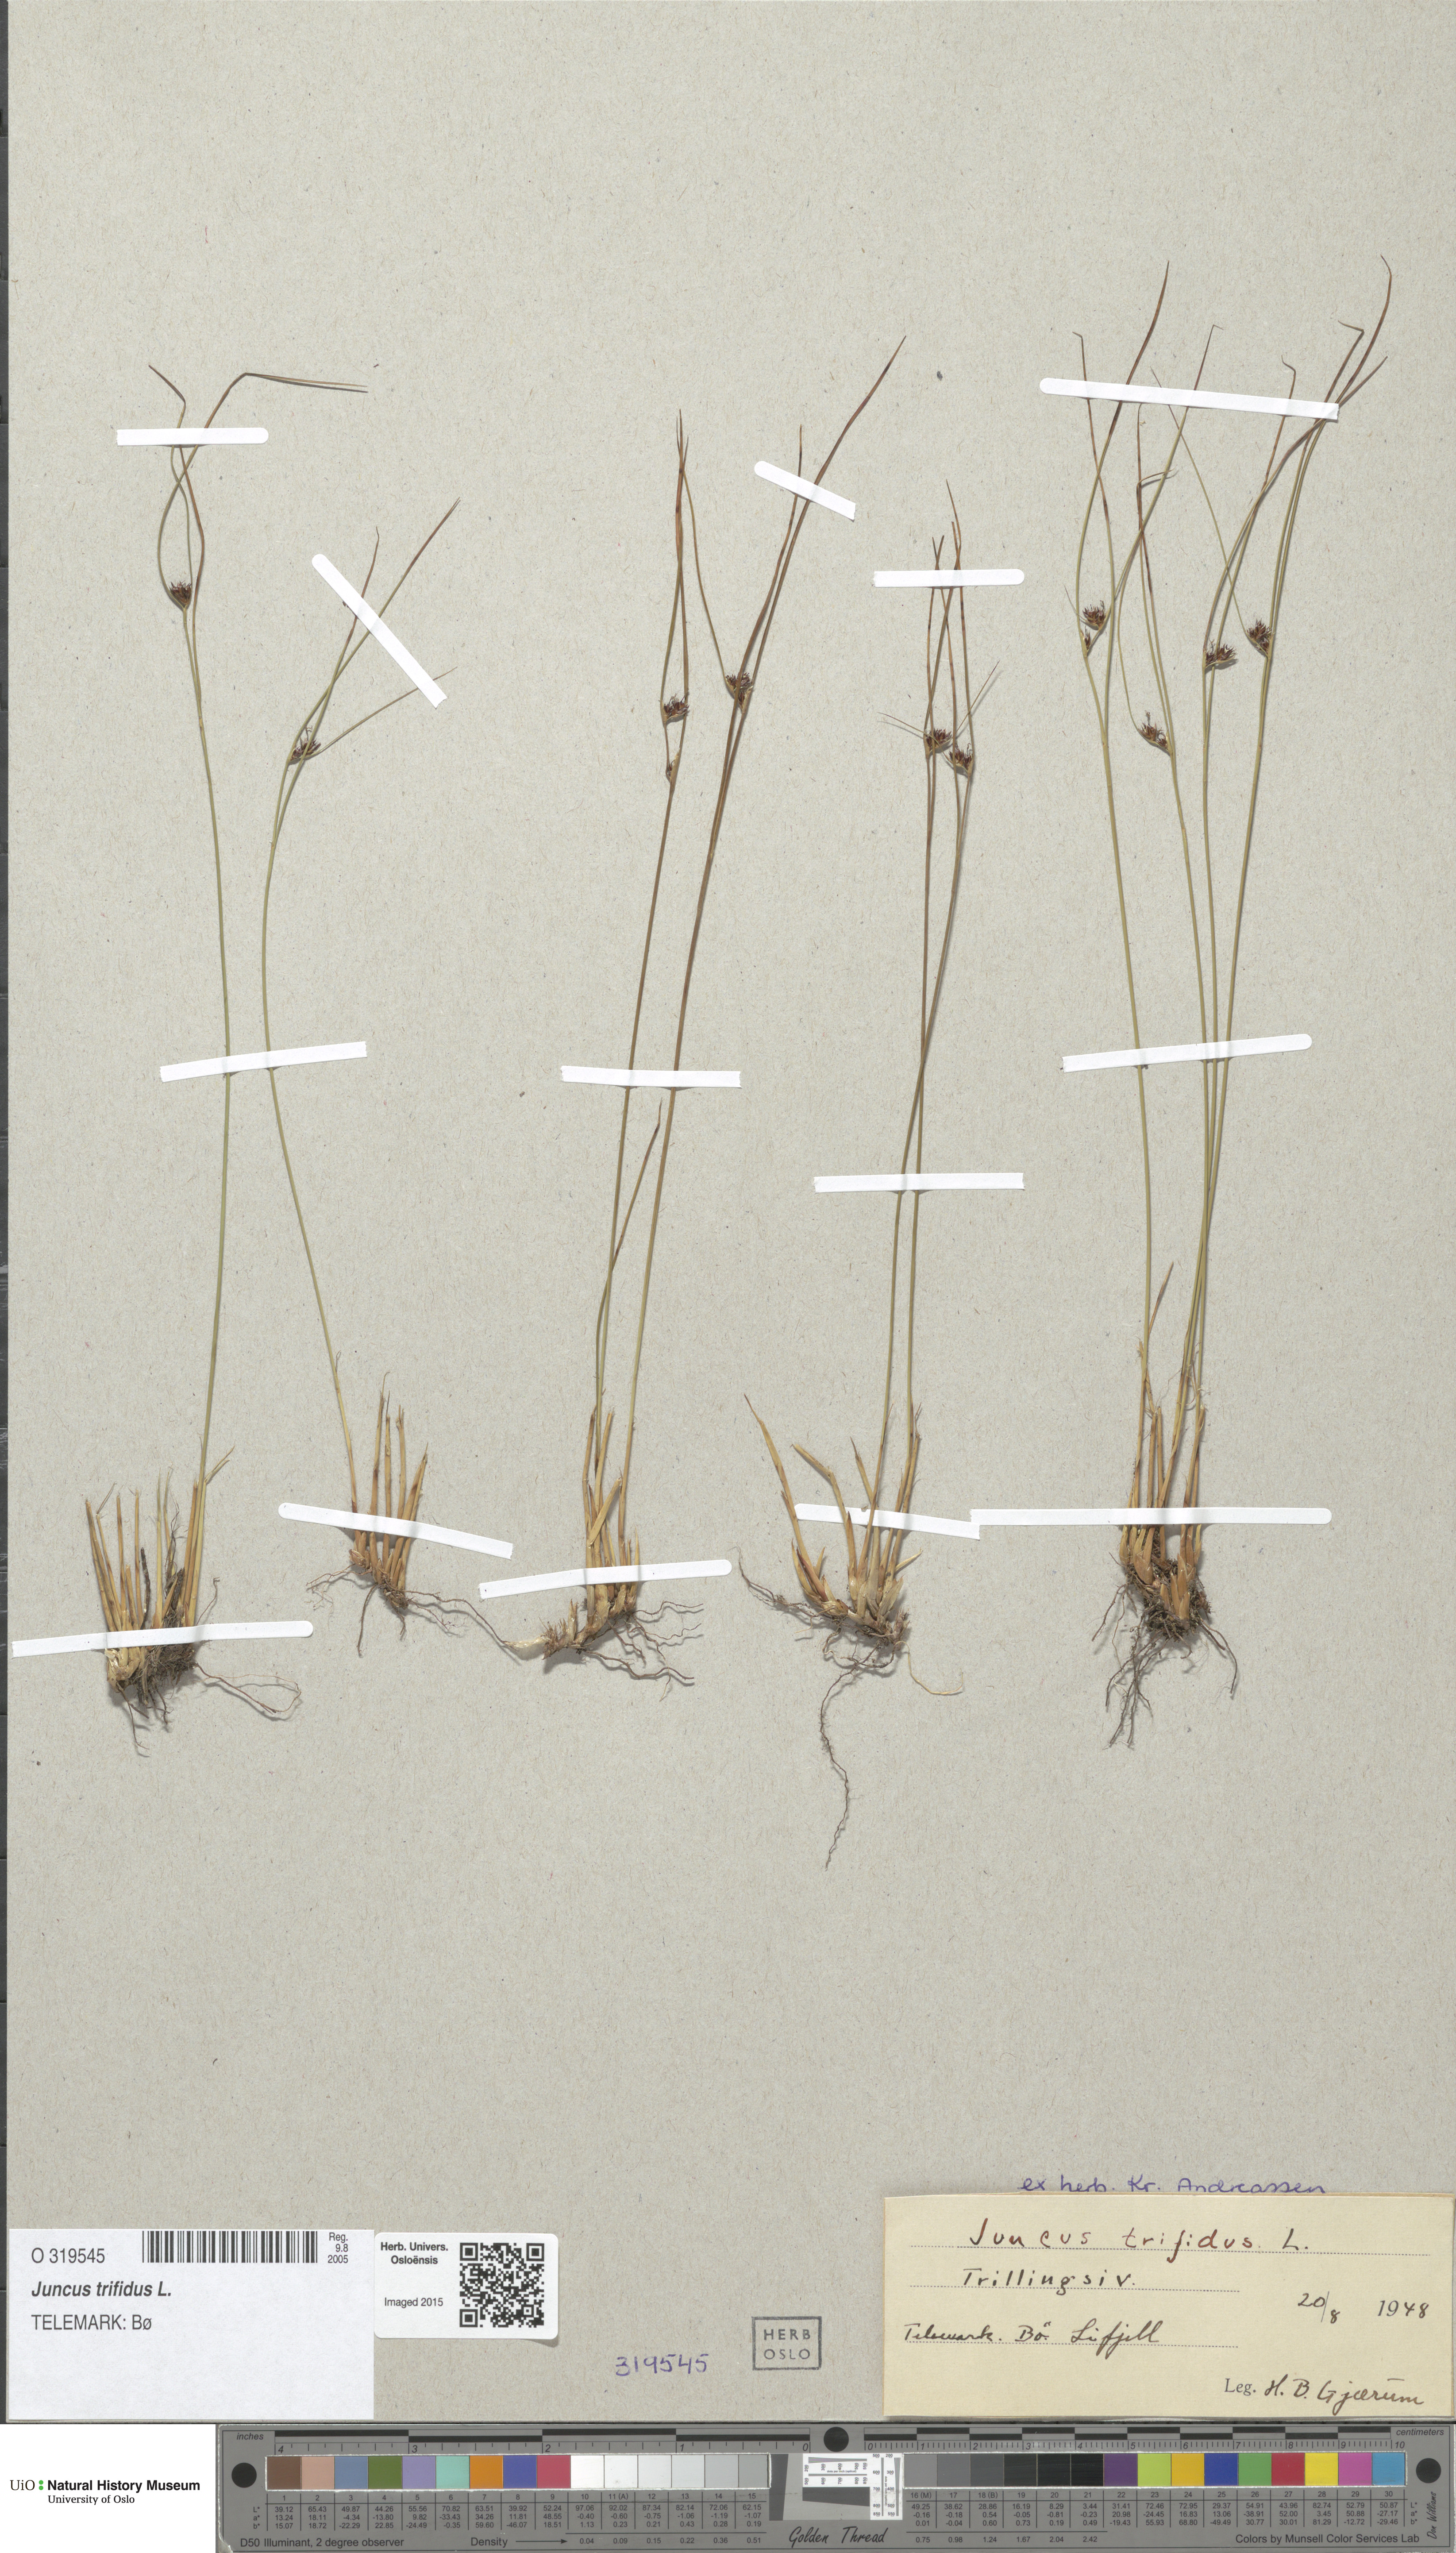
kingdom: Plantae
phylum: Tracheophyta
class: Liliopsida
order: Poales
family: Juncaceae
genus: Oreojuncus
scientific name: Oreojuncus trifidus
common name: Highland rush
